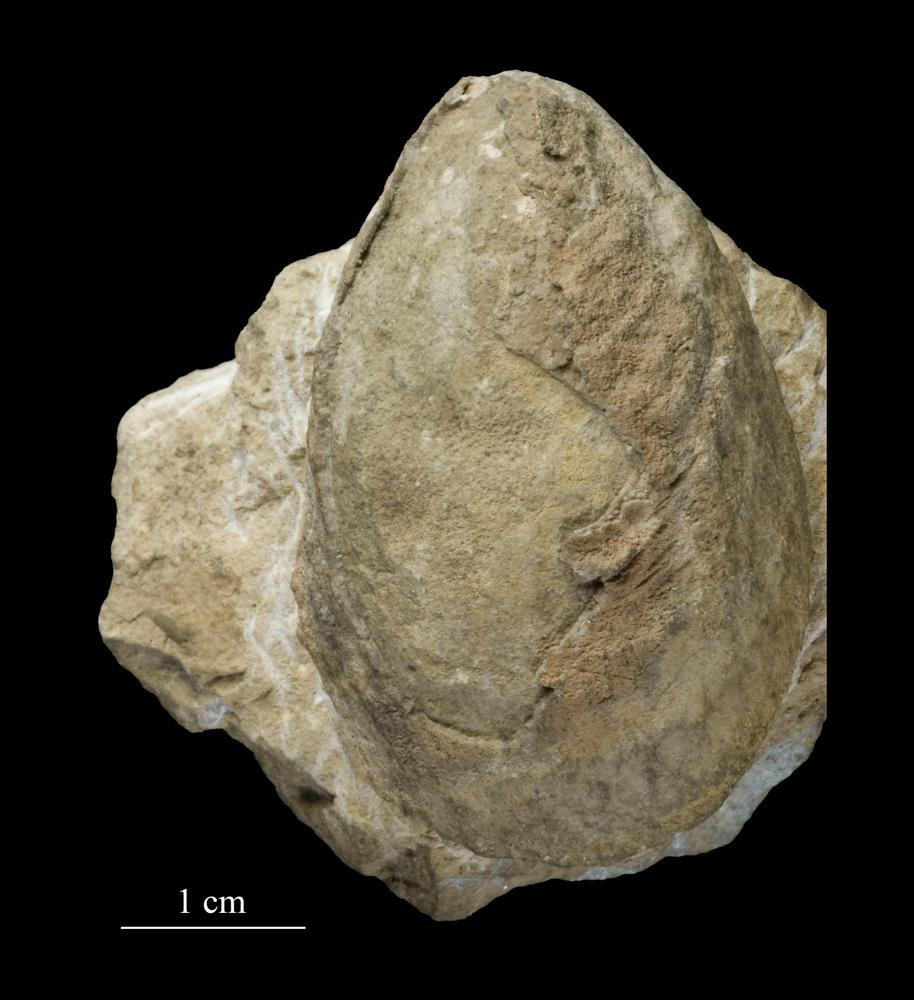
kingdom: Animalia
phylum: Mollusca
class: Monoplacophora
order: Tryblidiida
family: Tryblidiidae
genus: Tryblidium
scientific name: Tryblidium
